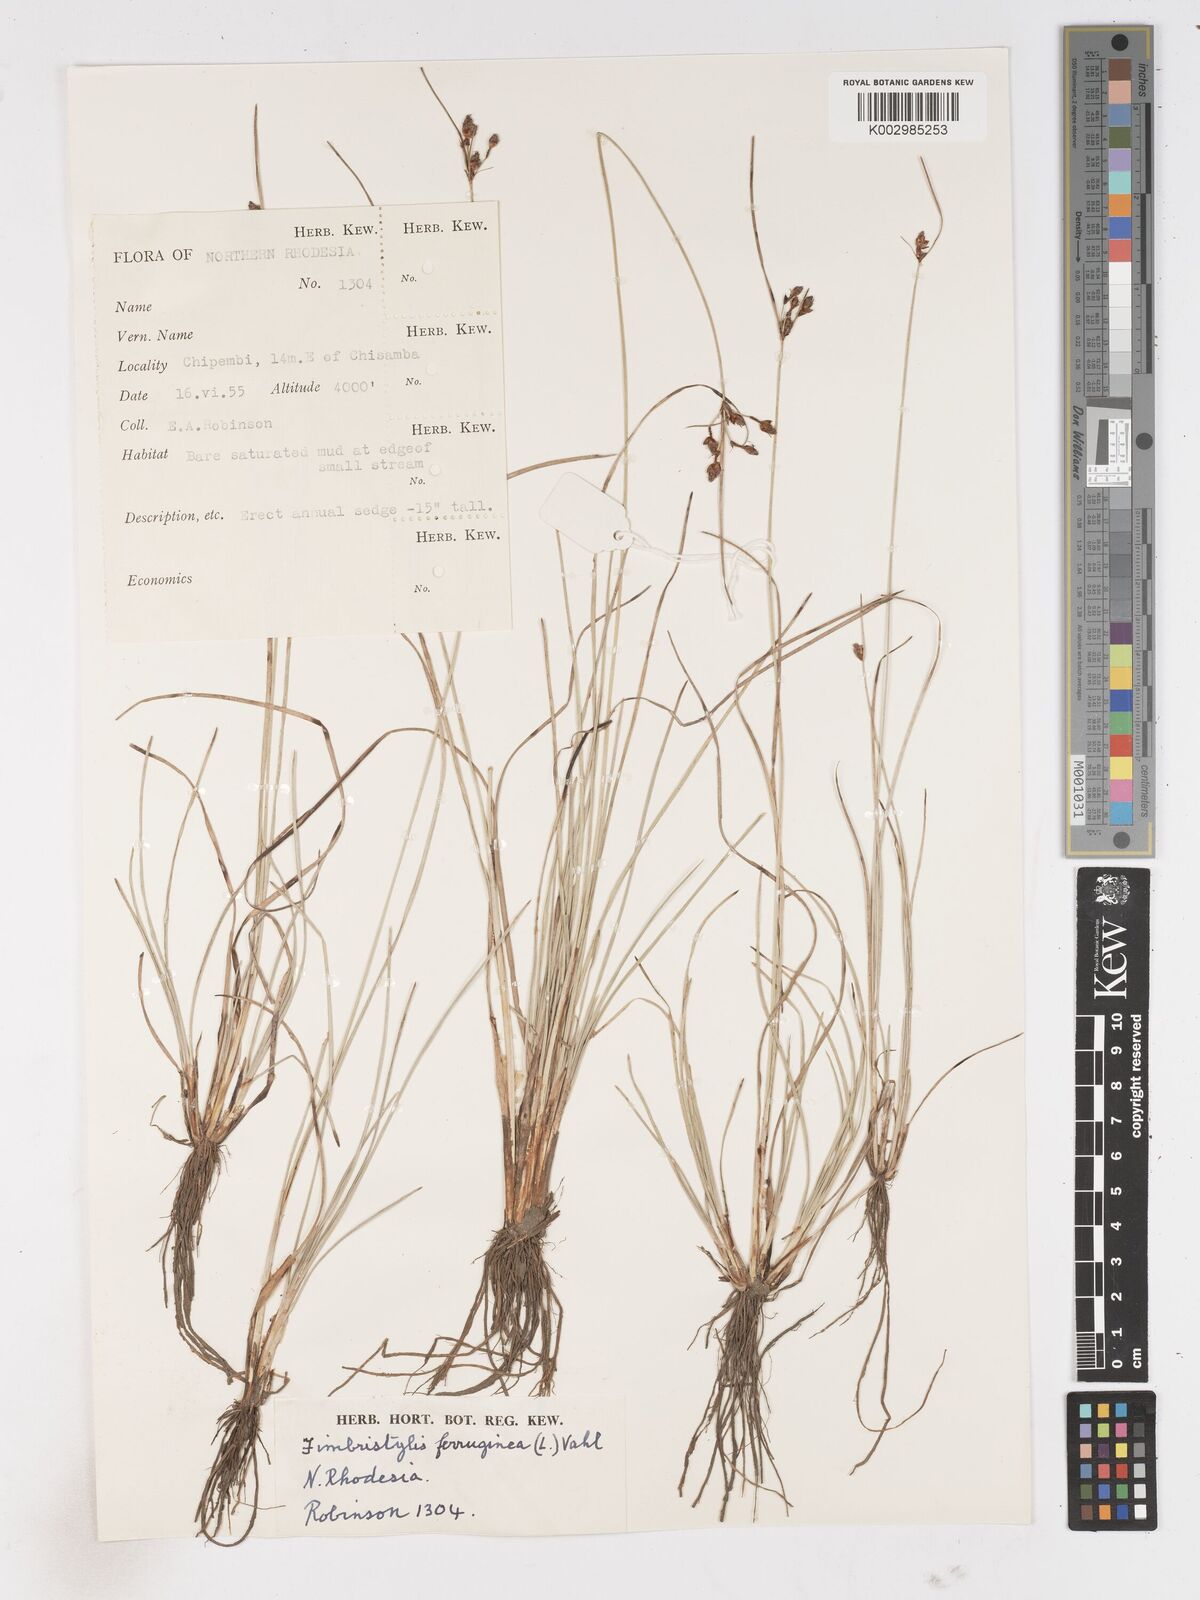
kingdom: Plantae
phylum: Tracheophyta
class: Liliopsida
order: Poales
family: Cyperaceae
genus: Fimbristylis
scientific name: Fimbristylis ferruginea
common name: West indian fimbry
